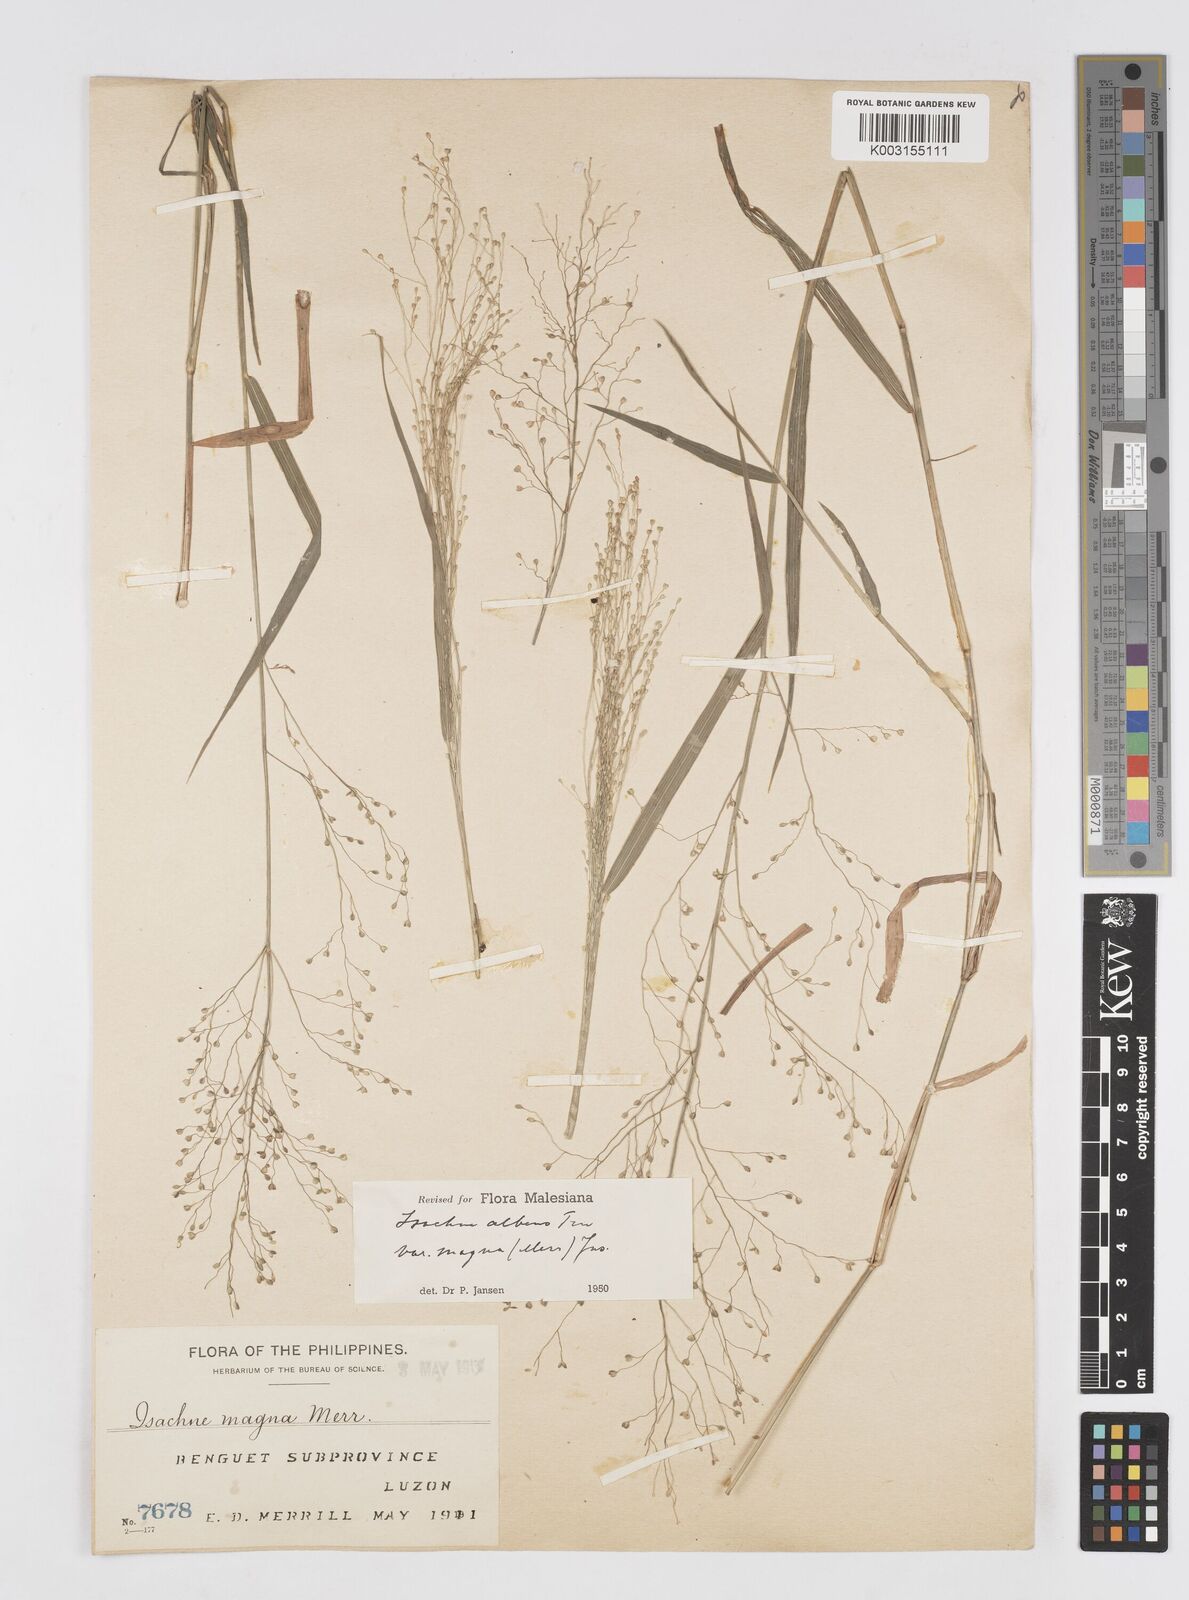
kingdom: Plantae
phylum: Tracheophyta
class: Liliopsida
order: Poales
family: Poaceae
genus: Isachne
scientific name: Isachne albens
